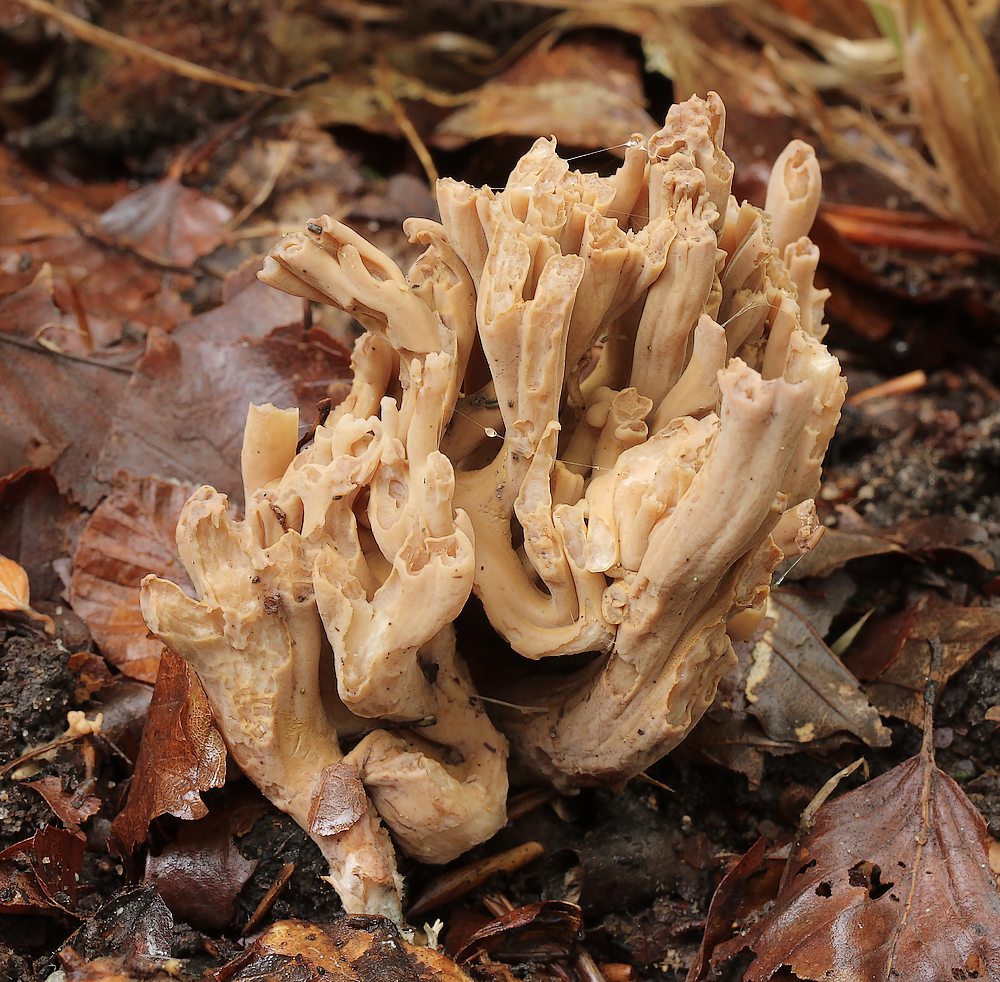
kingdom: Fungi
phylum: Basidiomycota
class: Agaricomycetes
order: Gomphales
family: Gomphaceae
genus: Ramaria
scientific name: Ramaria
